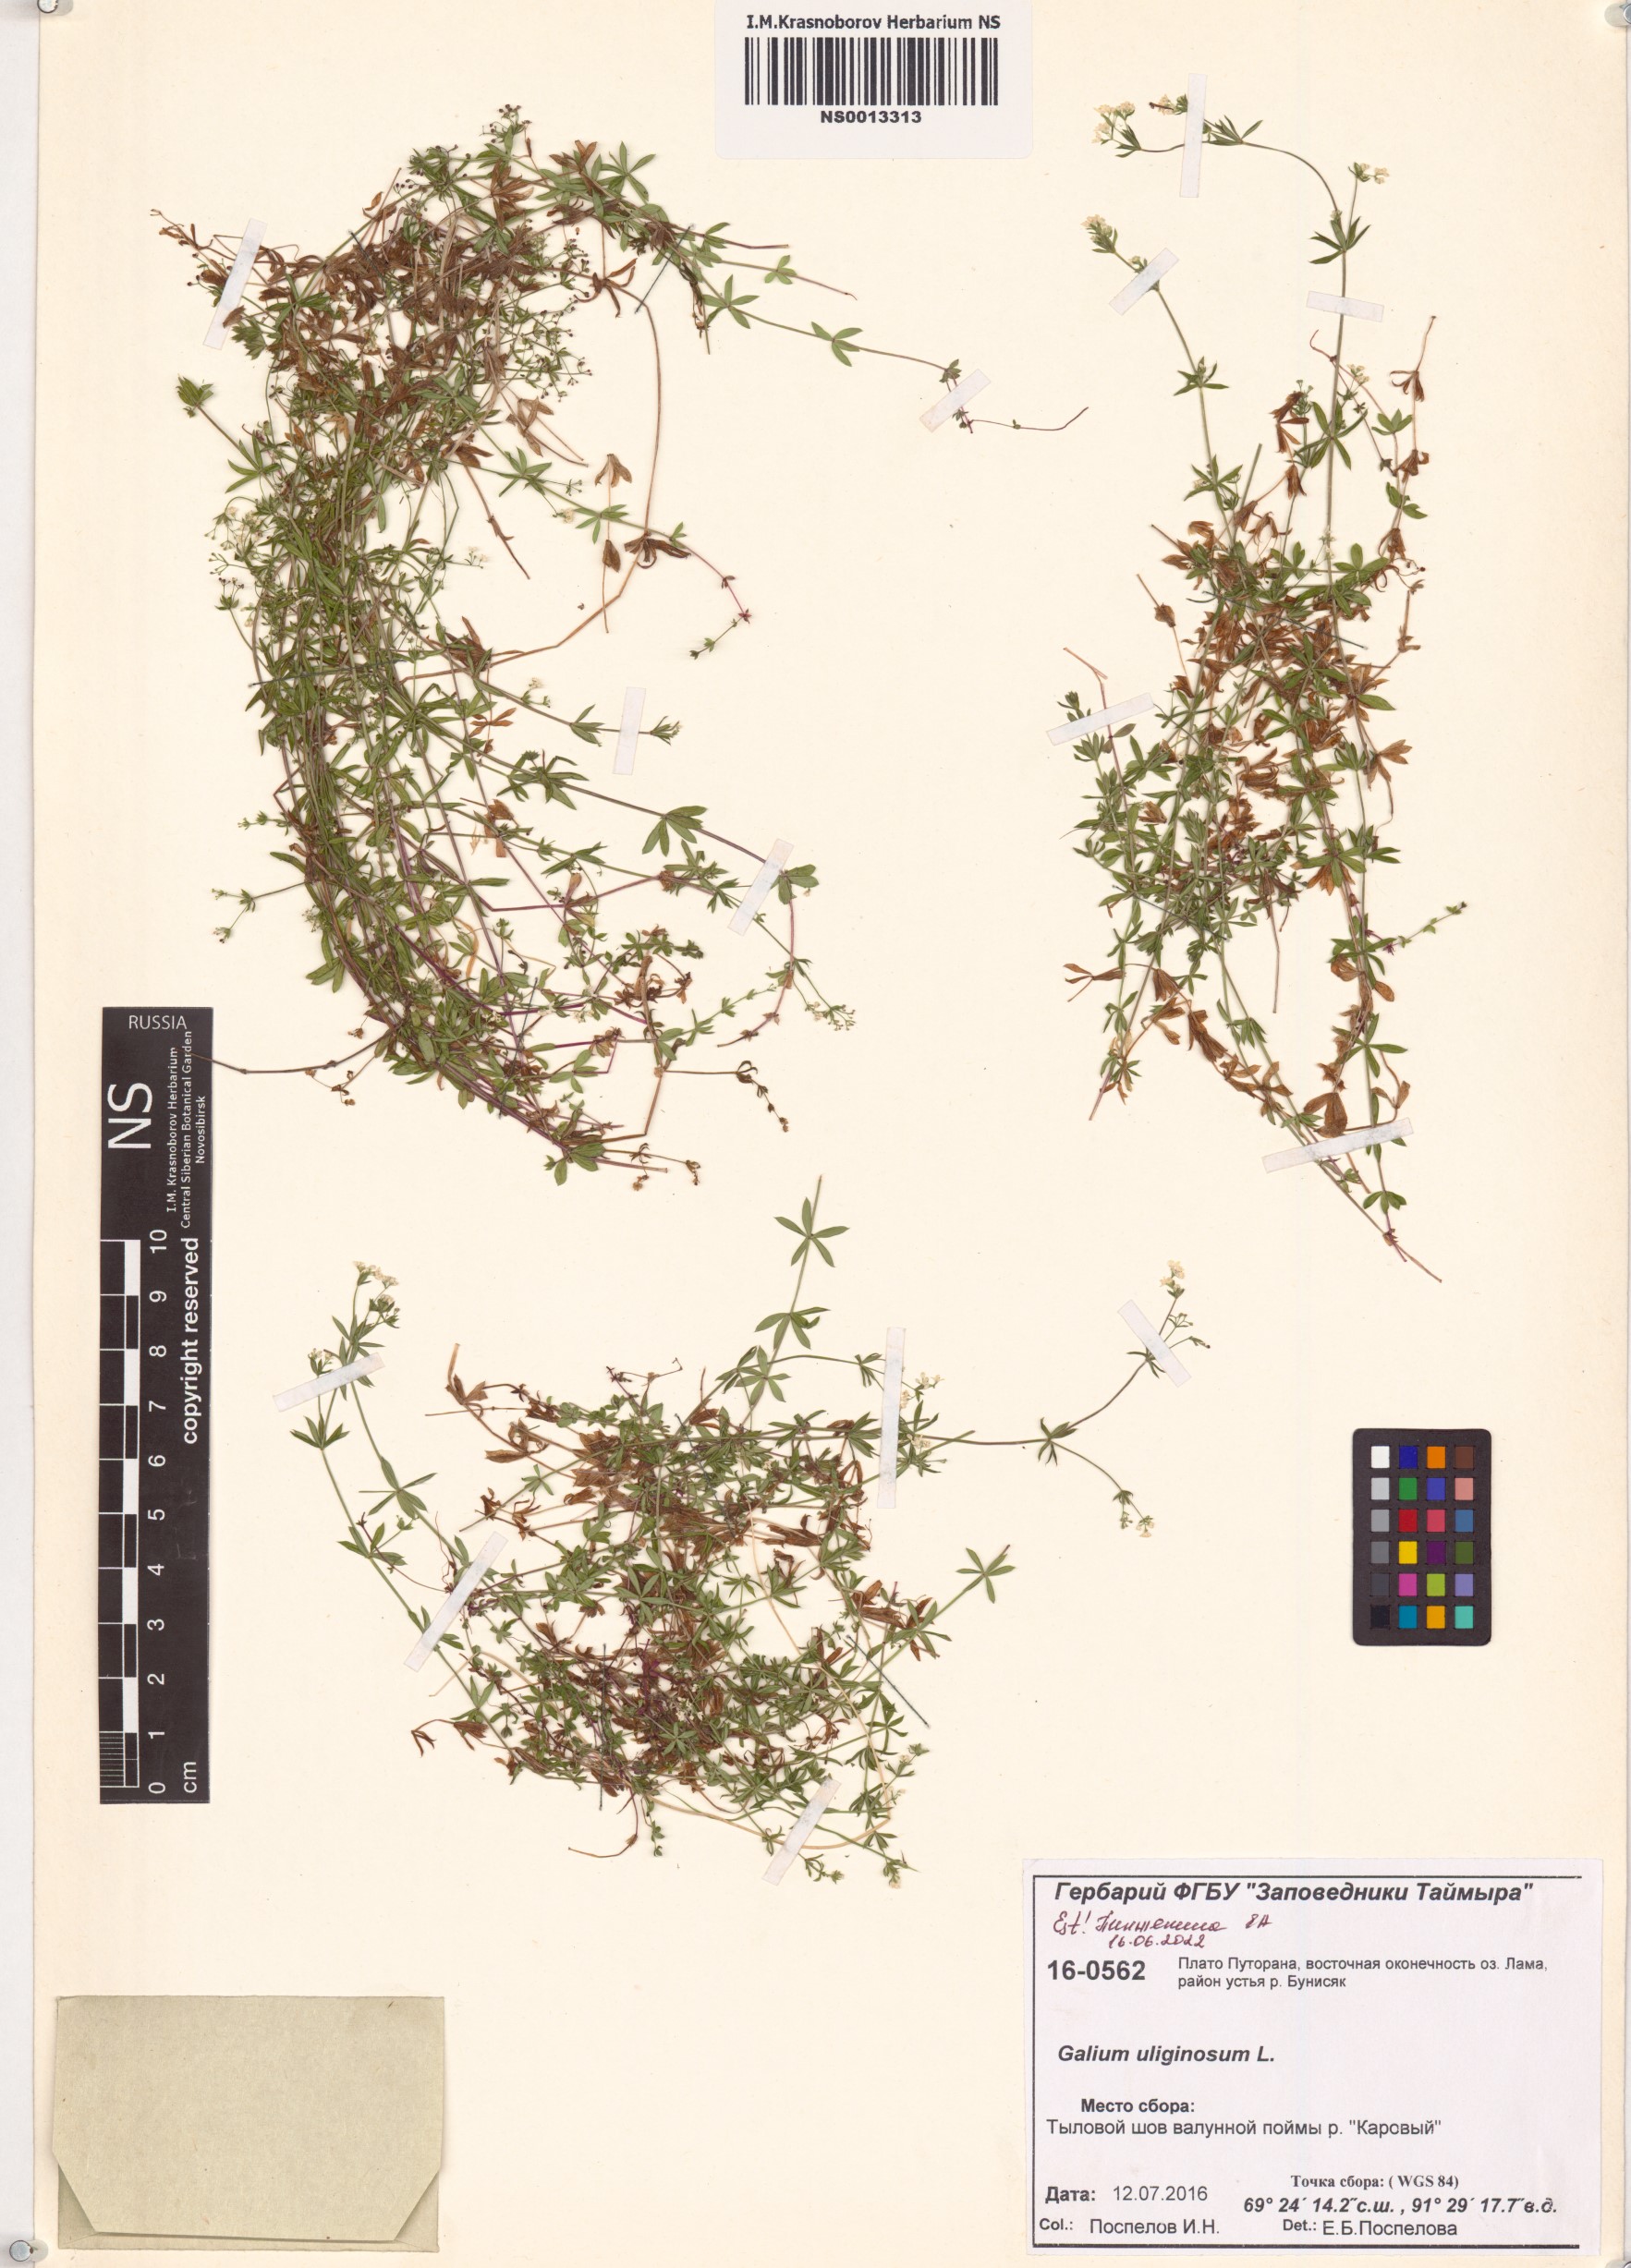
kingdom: Plantae
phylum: Tracheophyta
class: Magnoliopsida
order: Gentianales
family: Rubiaceae
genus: Galium
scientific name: Galium uliginosum
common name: Fen bedstraw
